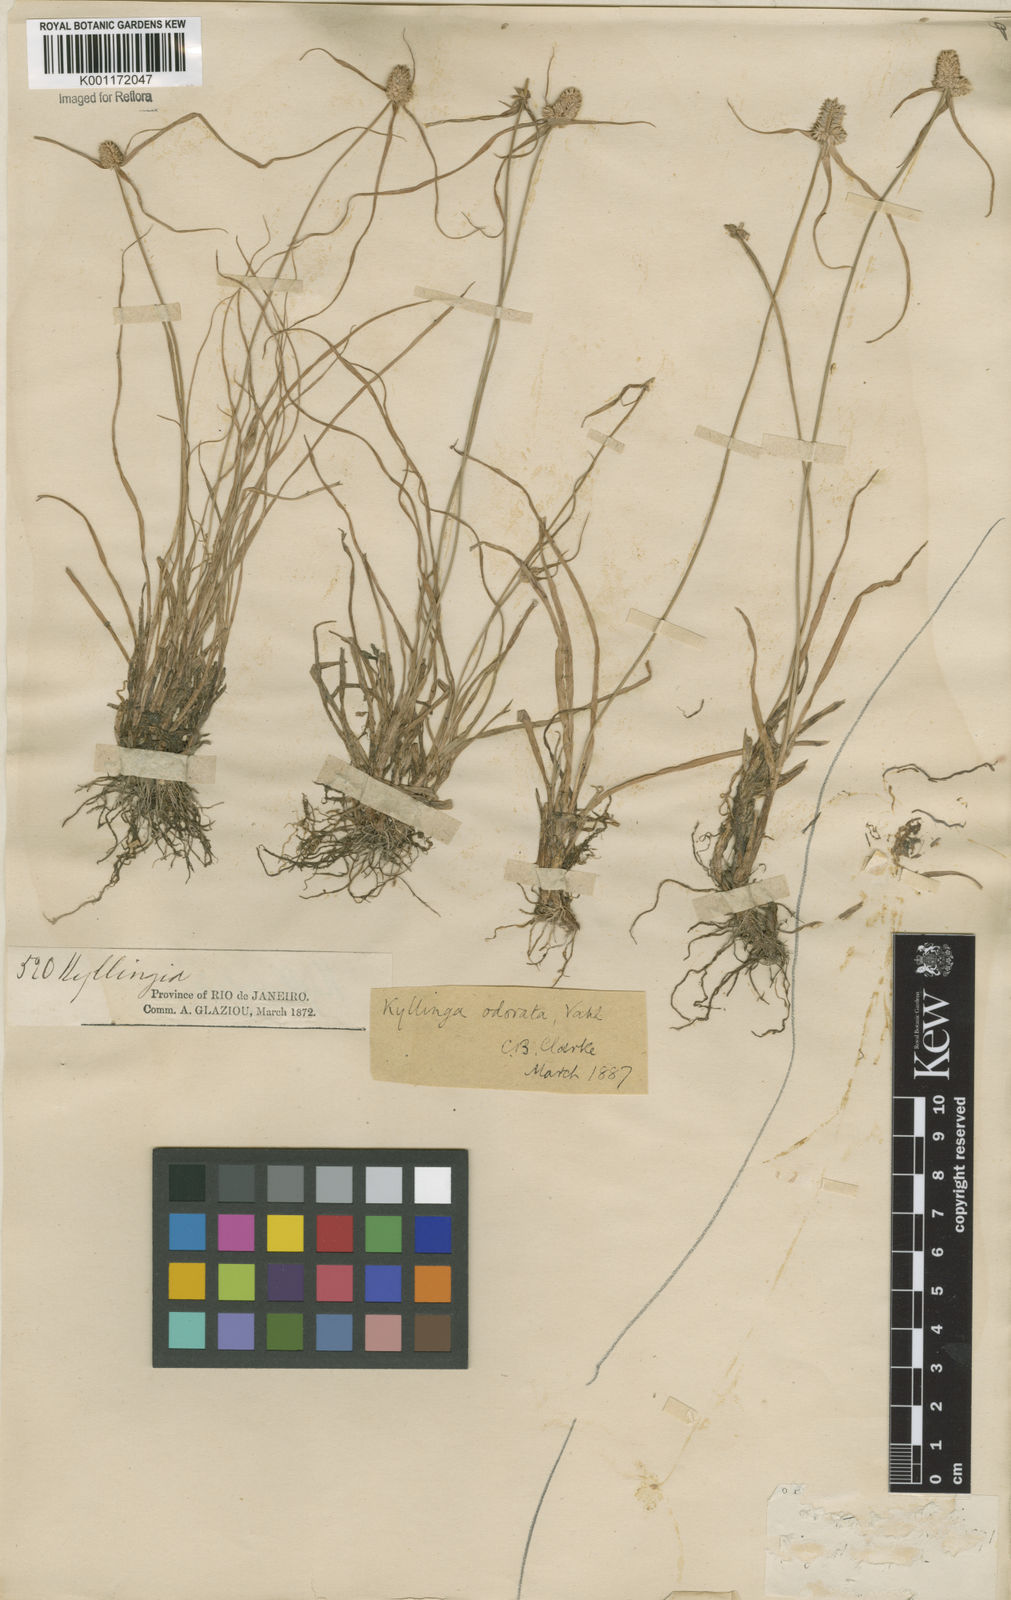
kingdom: Plantae
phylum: Tracheophyta
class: Liliopsida
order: Poales
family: Cyperaceae
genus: Cyperus
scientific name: Cyperus
